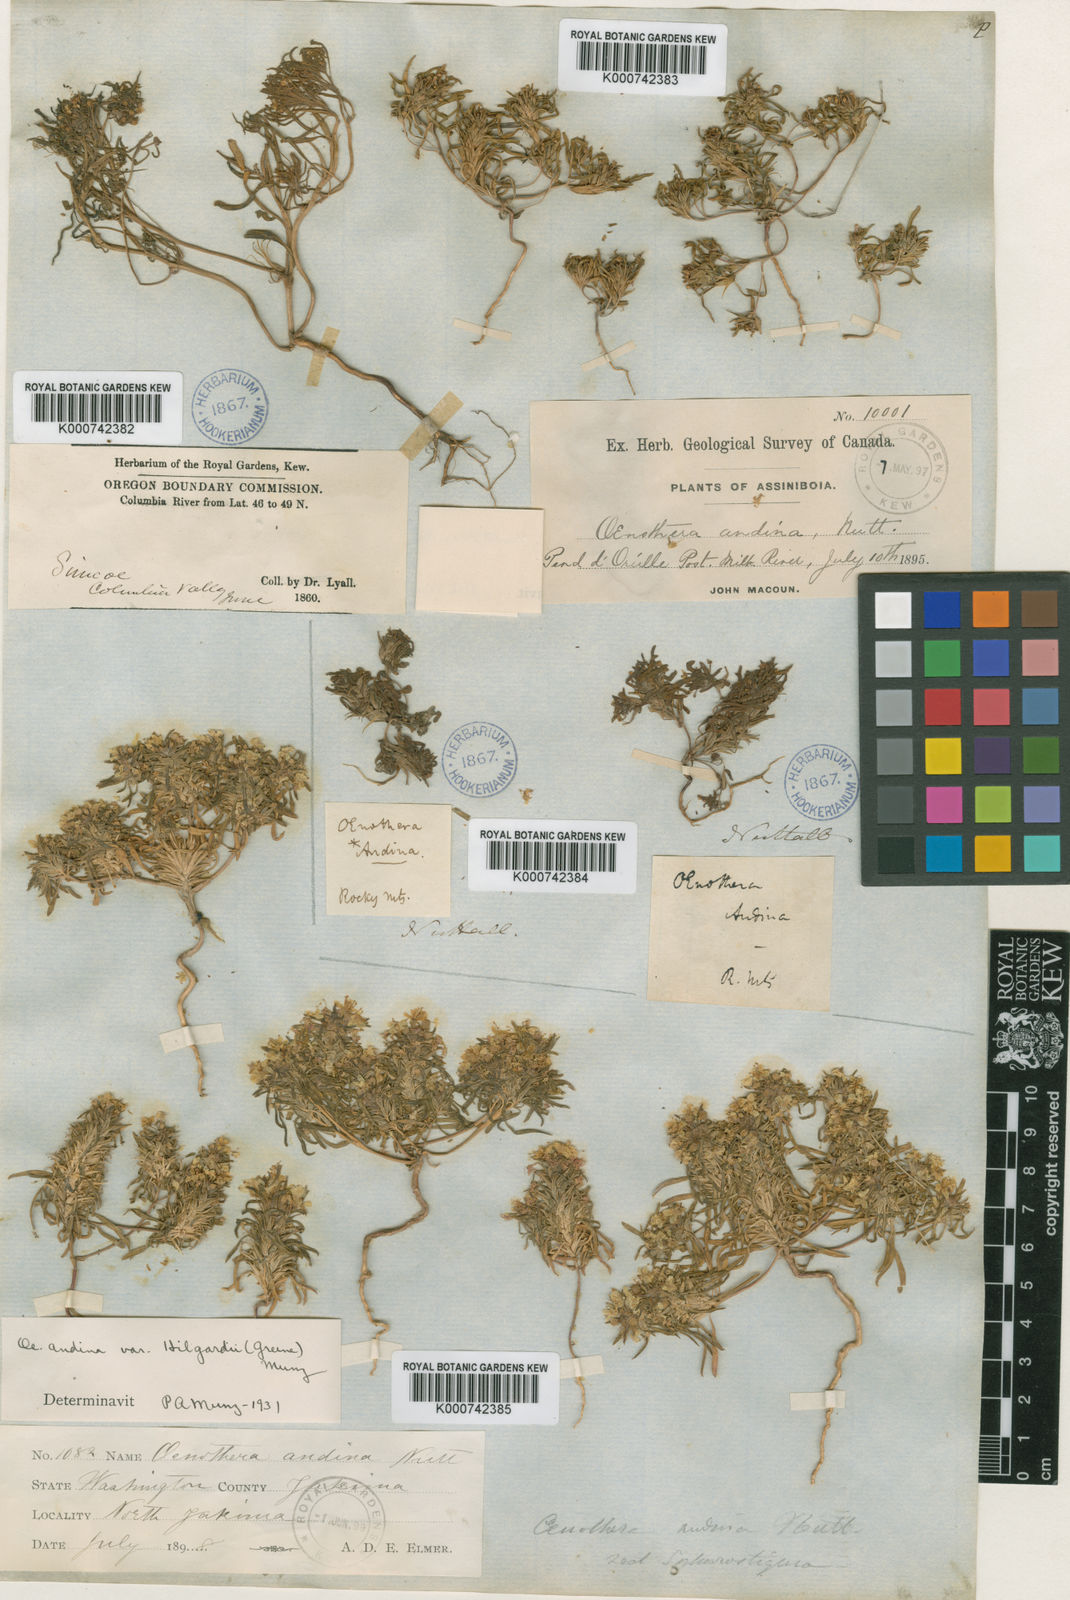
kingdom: Plantae
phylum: Tracheophyta
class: Magnoliopsida
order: Myrtales
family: Onagraceae
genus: Neoholmgrenia
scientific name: Neoholmgrenia andina
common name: Andean evening primrose
